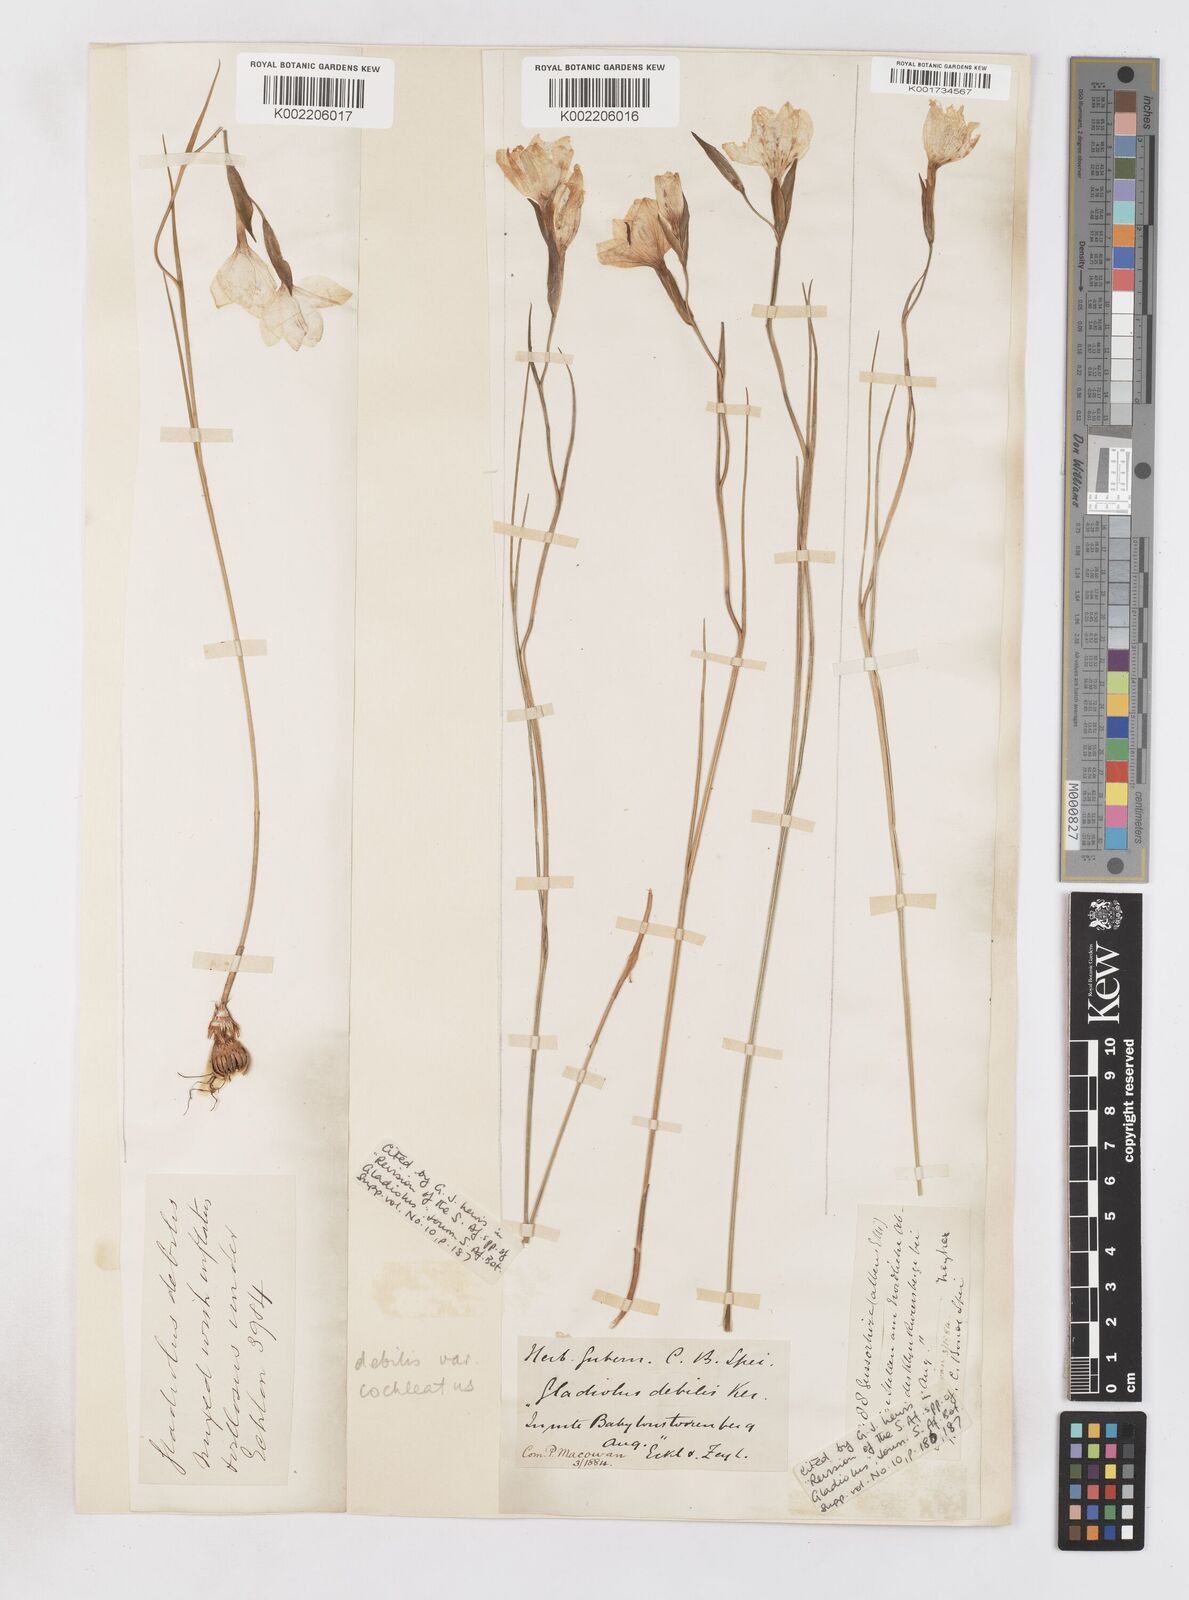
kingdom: Plantae
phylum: Tracheophyta
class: Liliopsida
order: Asparagales
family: Iridaceae
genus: Gladiolus
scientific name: Gladiolus debilis
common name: Painted-lady
